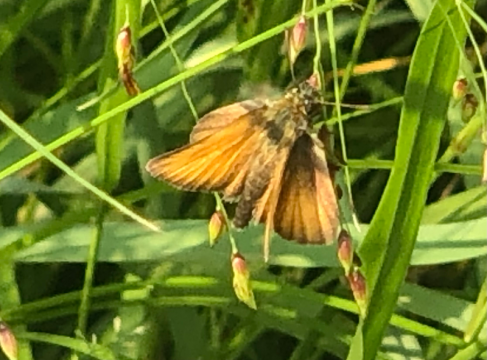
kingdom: Animalia
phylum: Arthropoda
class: Insecta
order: Lepidoptera
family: Hesperiidae
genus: Thymelicus
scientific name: Thymelicus lineola
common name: European Skipper
